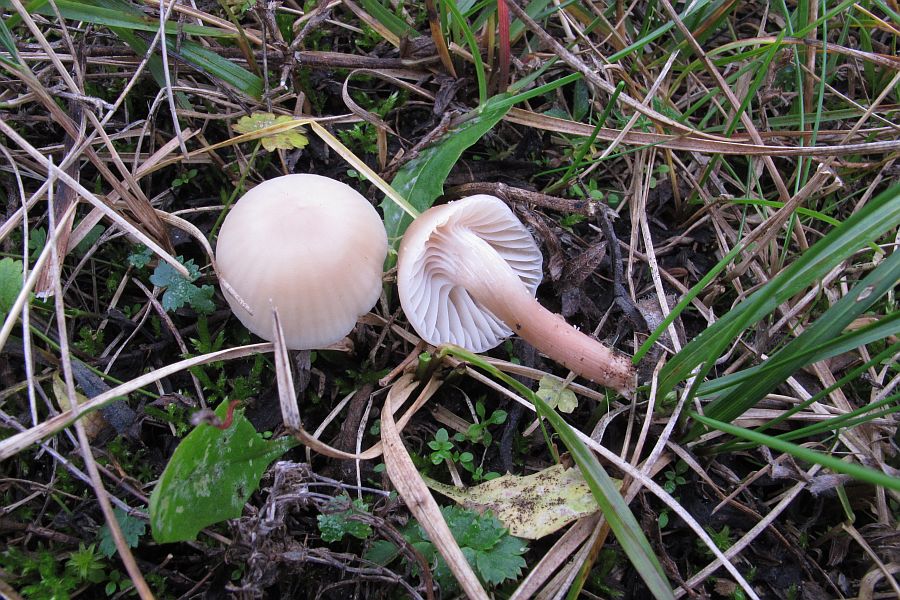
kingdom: Fungi
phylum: Basidiomycota
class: Agaricomycetes
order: Agaricales
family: Hygrophoraceae
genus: Cuphophyllus
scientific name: Cuphophyllus virgineus
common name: isabella-vokshat
